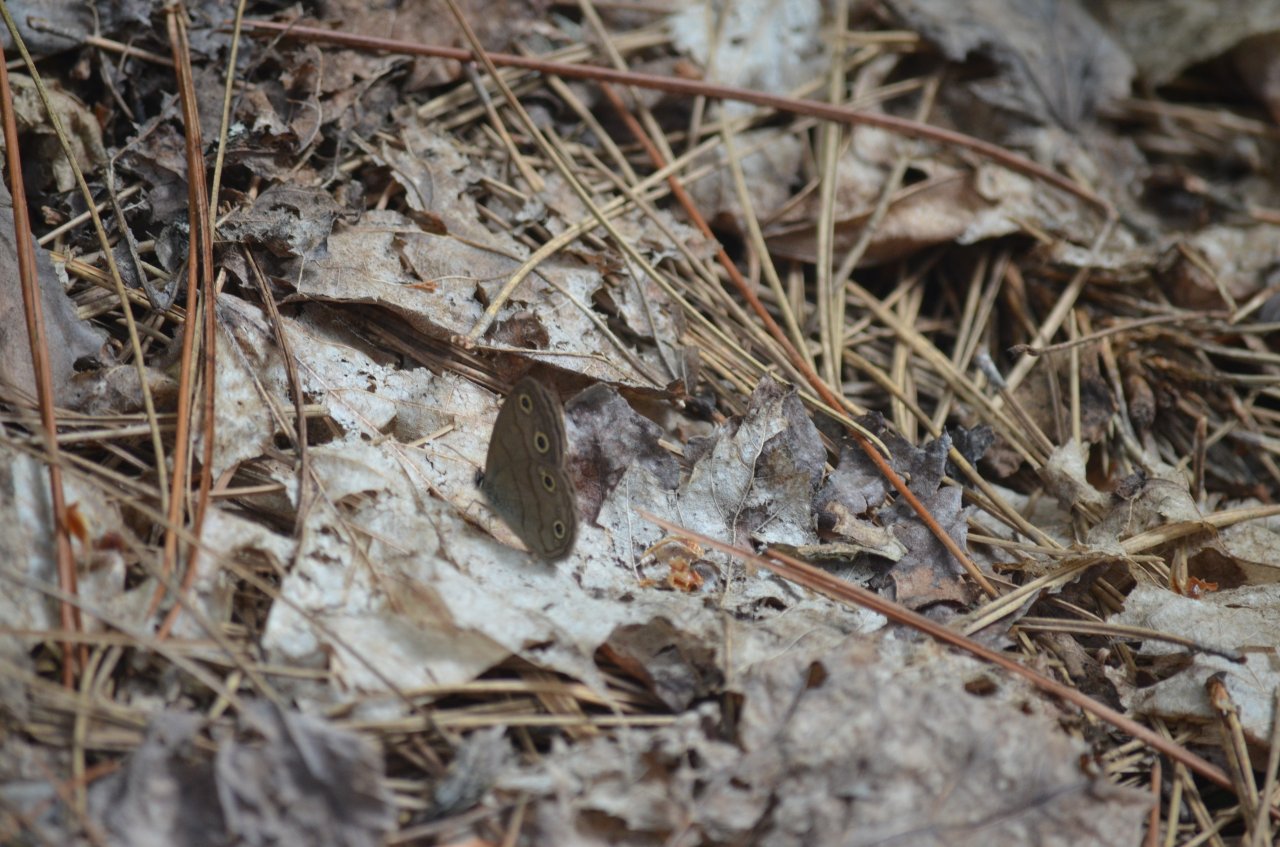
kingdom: Animalia
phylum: Arthropoda
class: Insecta
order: Lepidoptera
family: Nymphalidae
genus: Euptychia
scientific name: Euptychia cymela
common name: Little Wood Satyr
